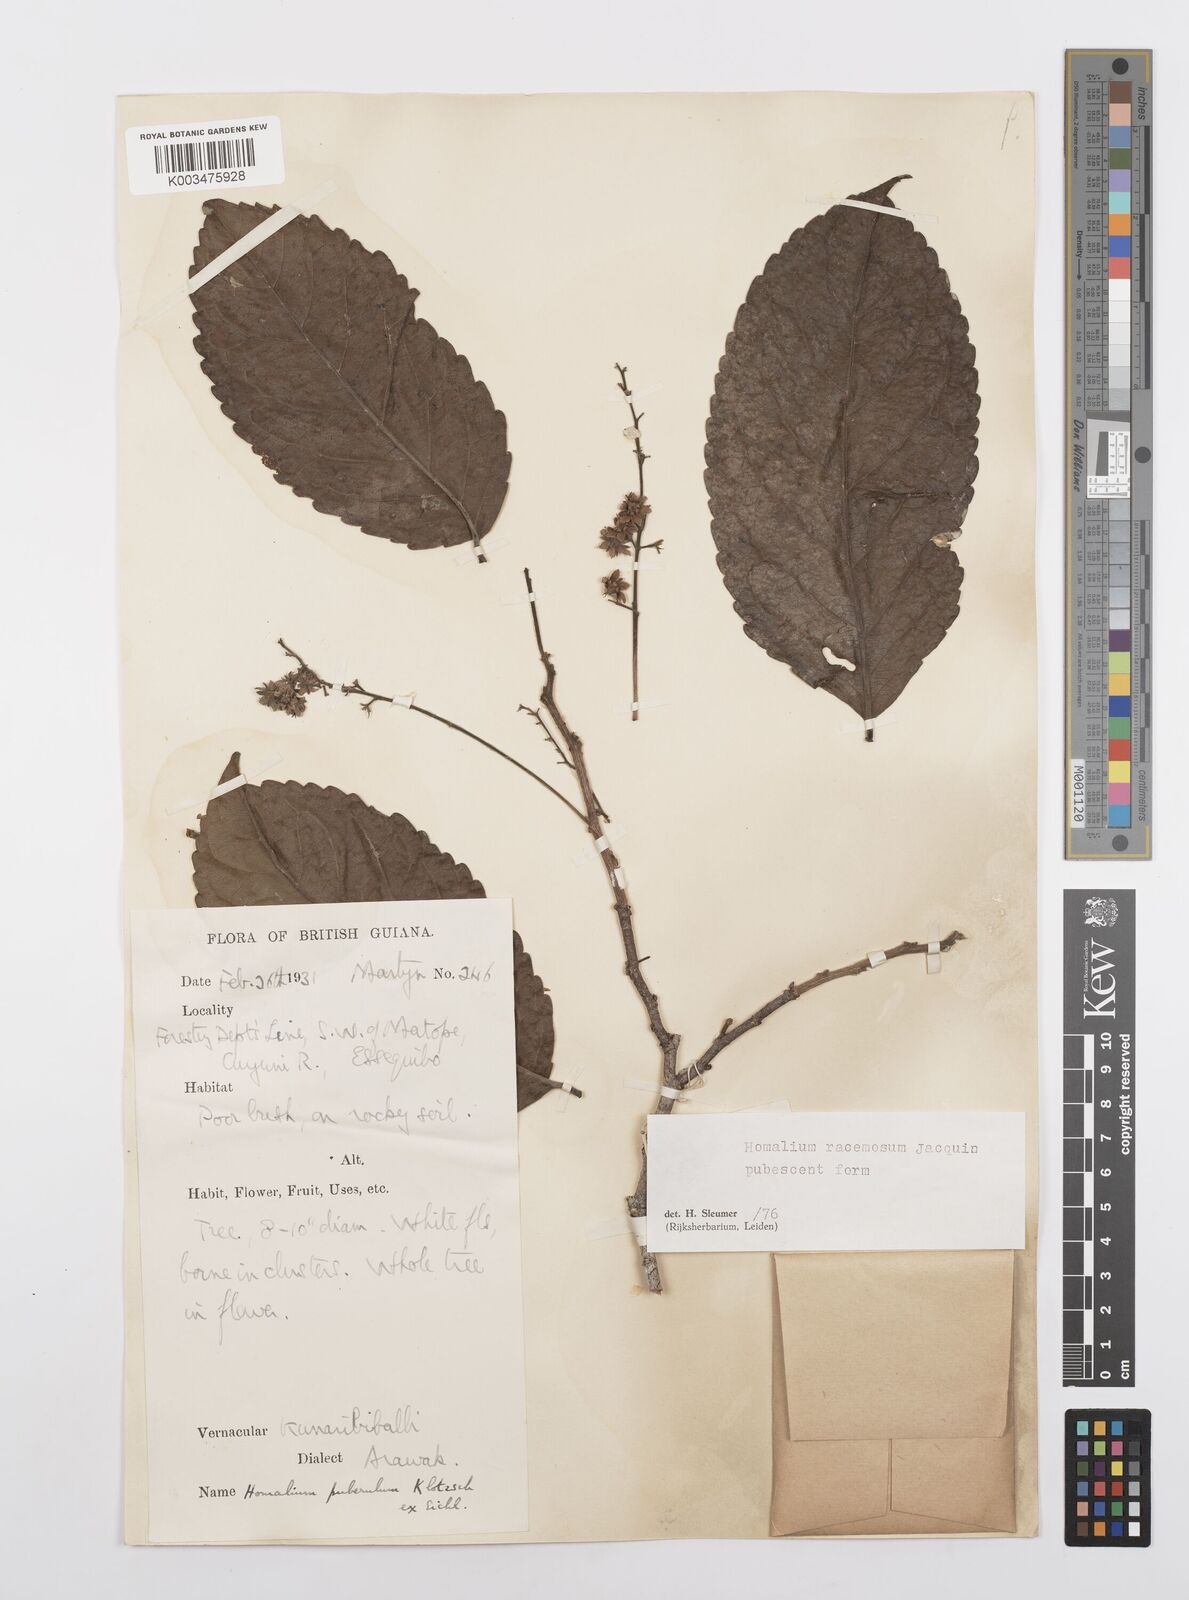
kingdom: Plantae
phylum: Tracheophyta
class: Magnoliopsida
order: Malpighiales
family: Salicaceae
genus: Homalium
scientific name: Homalium racemosum
